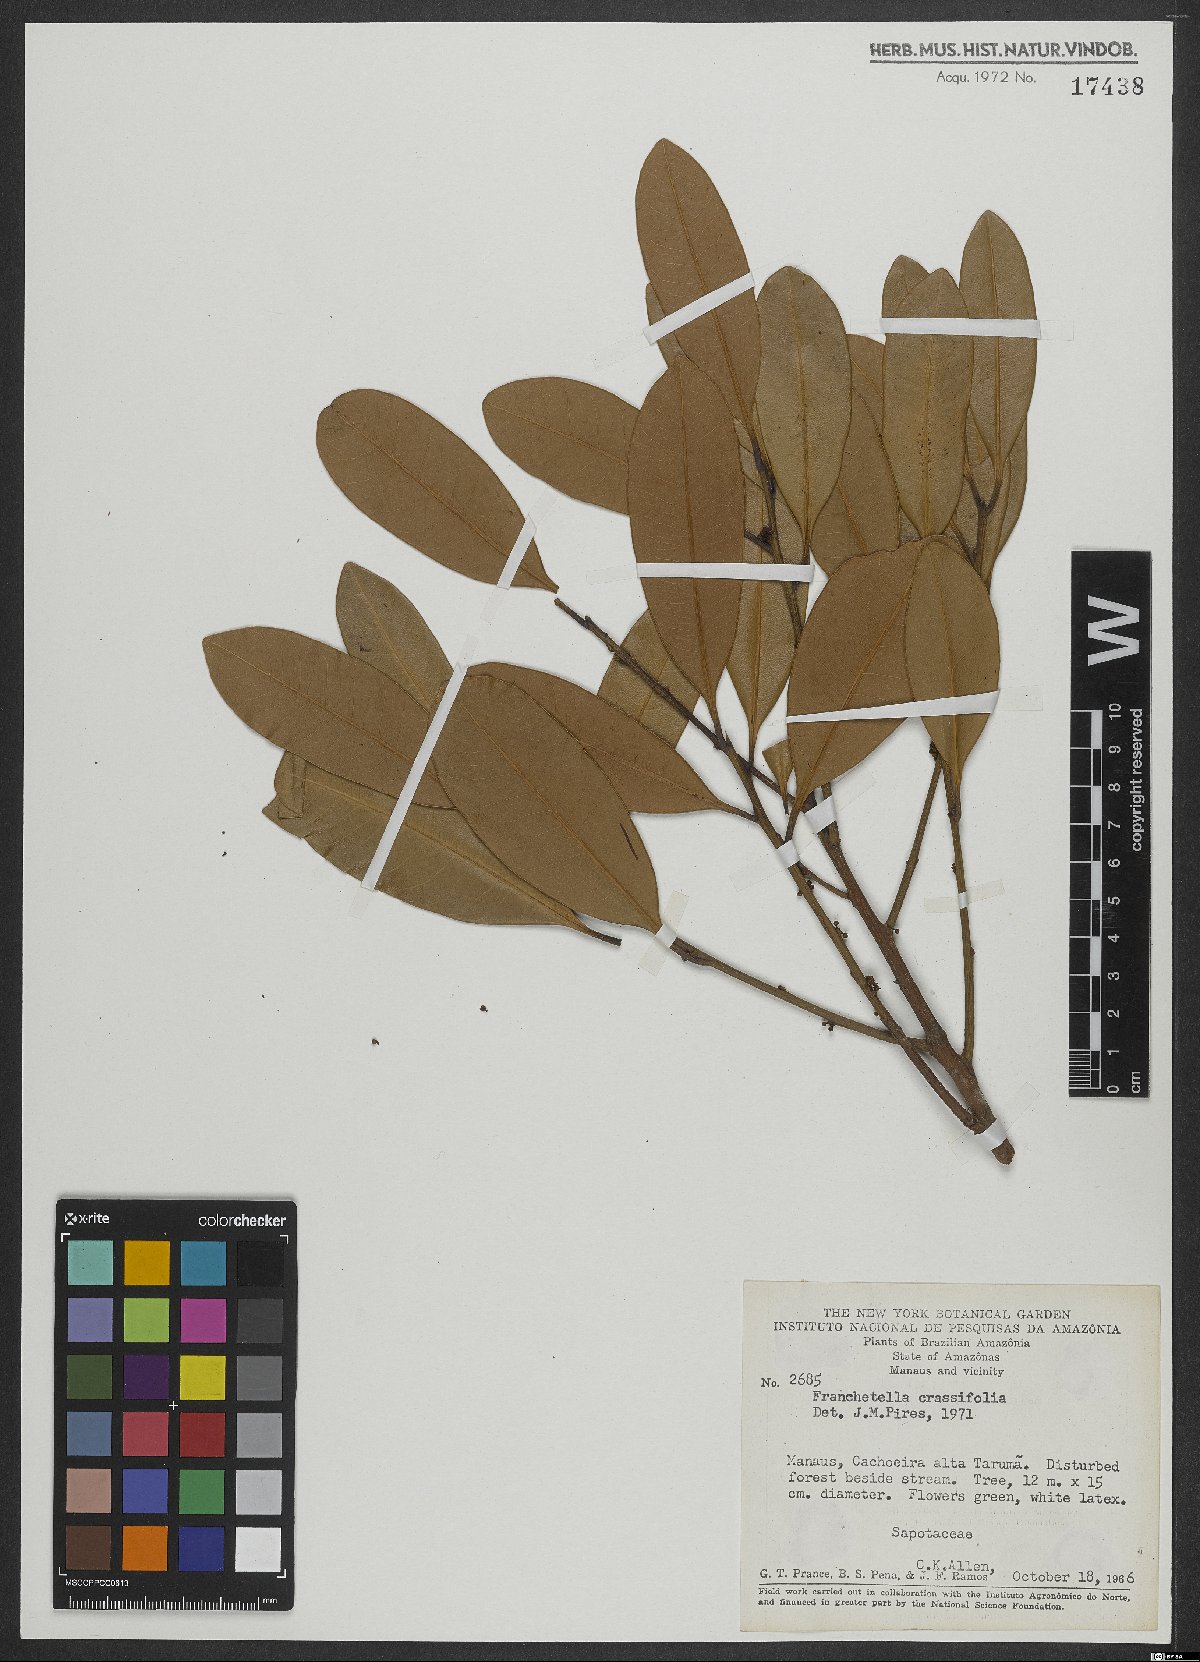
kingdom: Plantae
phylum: Tracheophyta
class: Magnoliopsida
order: Ericales
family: Sapotaceae
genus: Pouteria
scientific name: Pouteria
